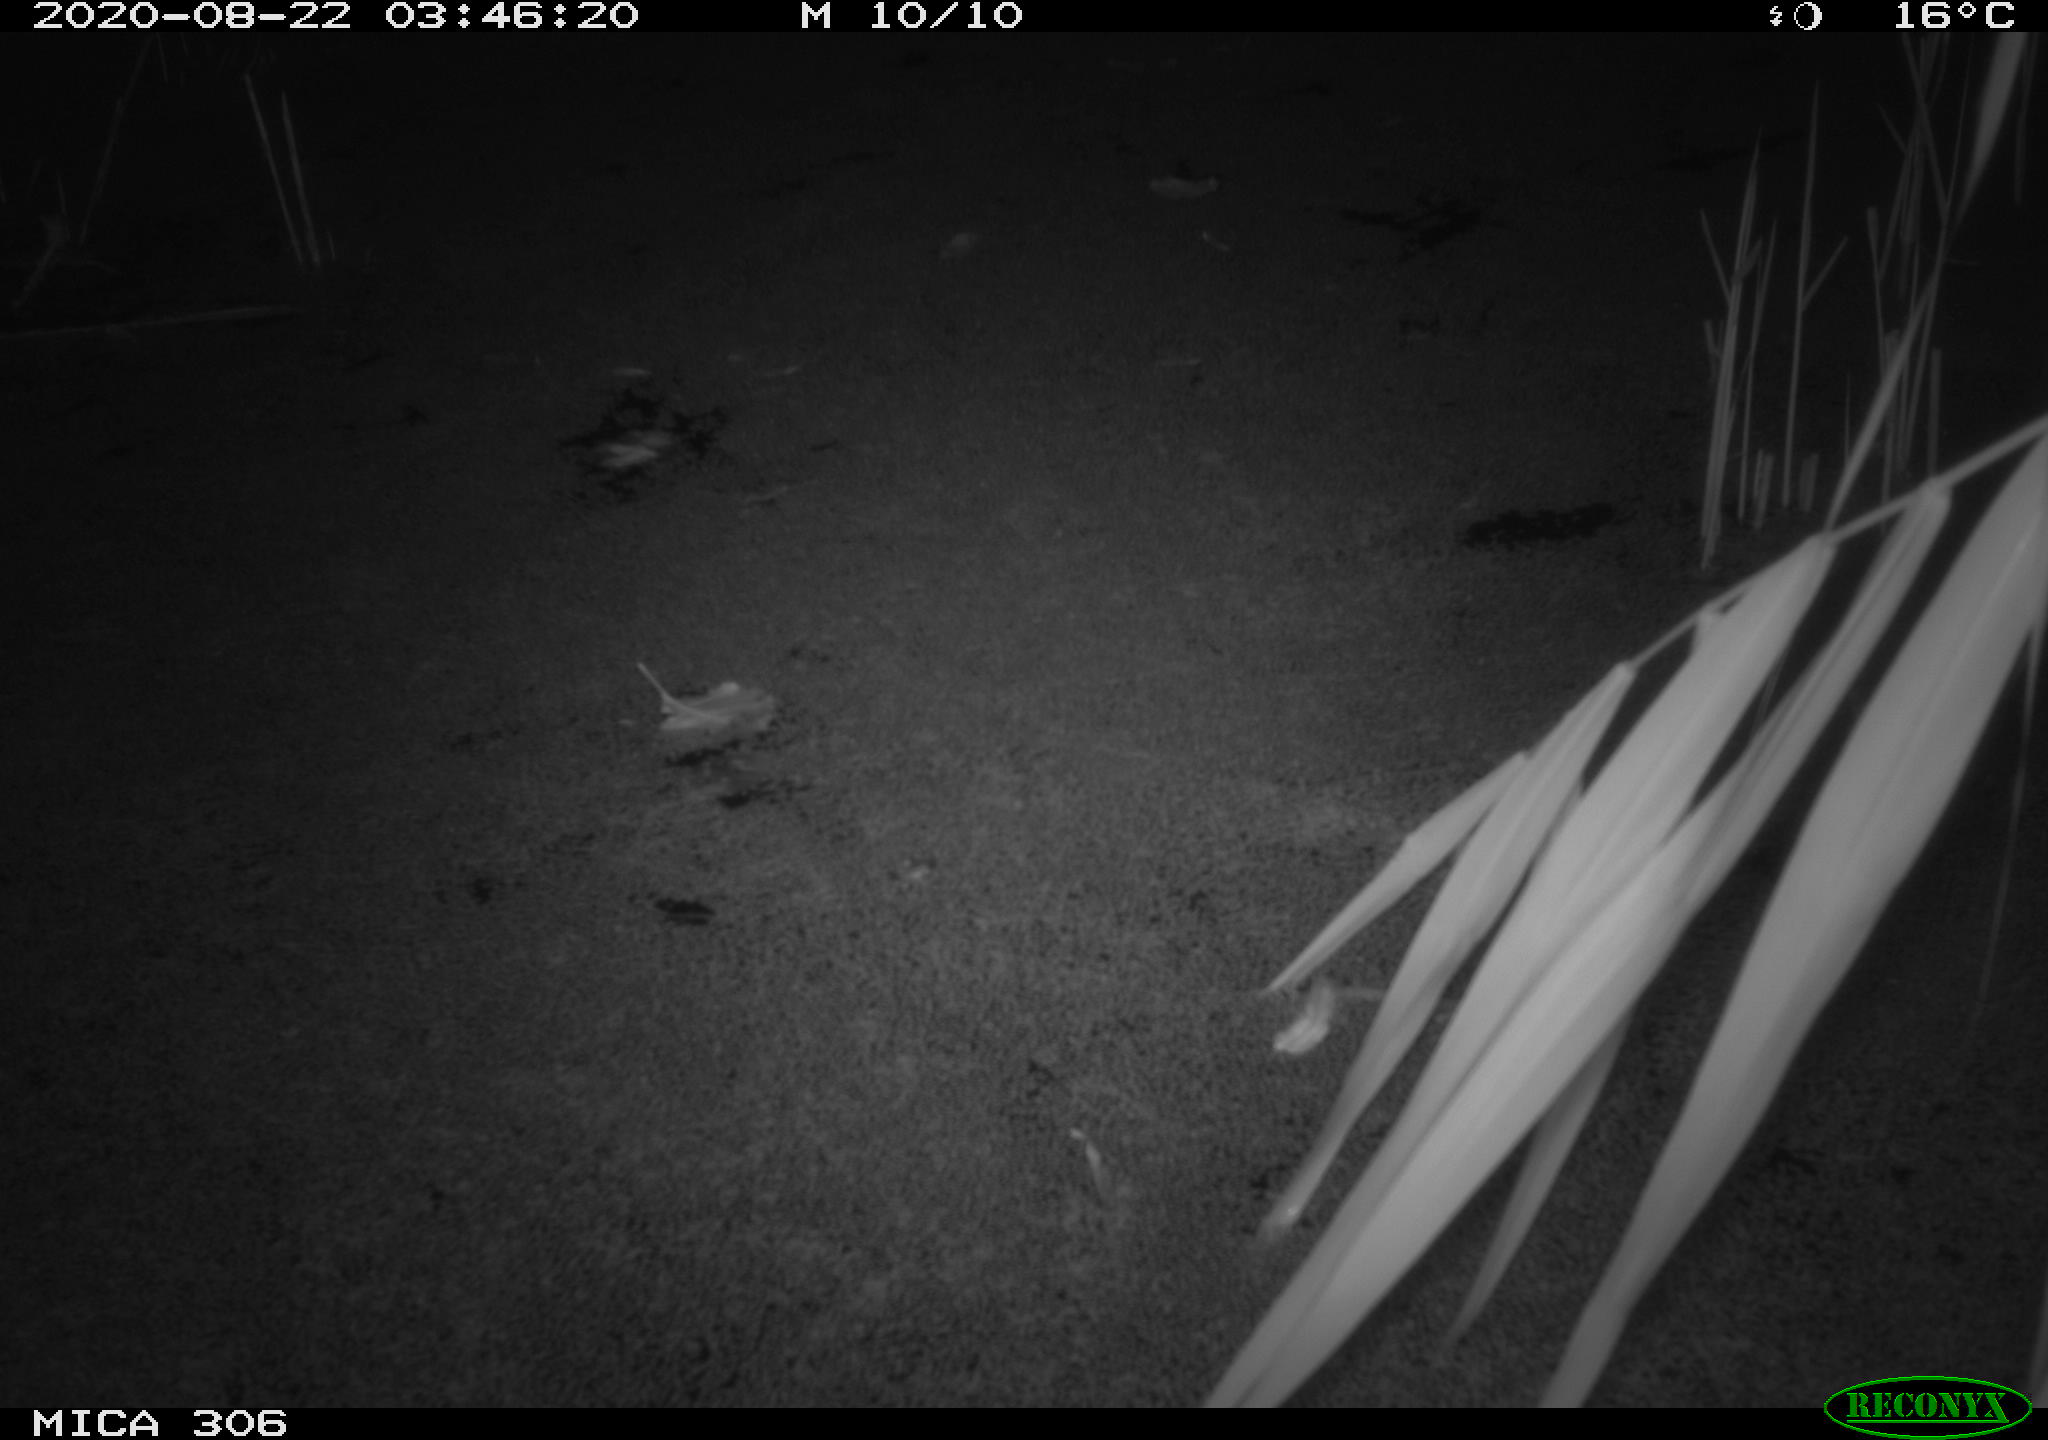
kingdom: Animalia
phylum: Chordata
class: Mammalia
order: Rodentia
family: Muridae
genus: Rattus
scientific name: Rattus norvegicus
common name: Brown rat
